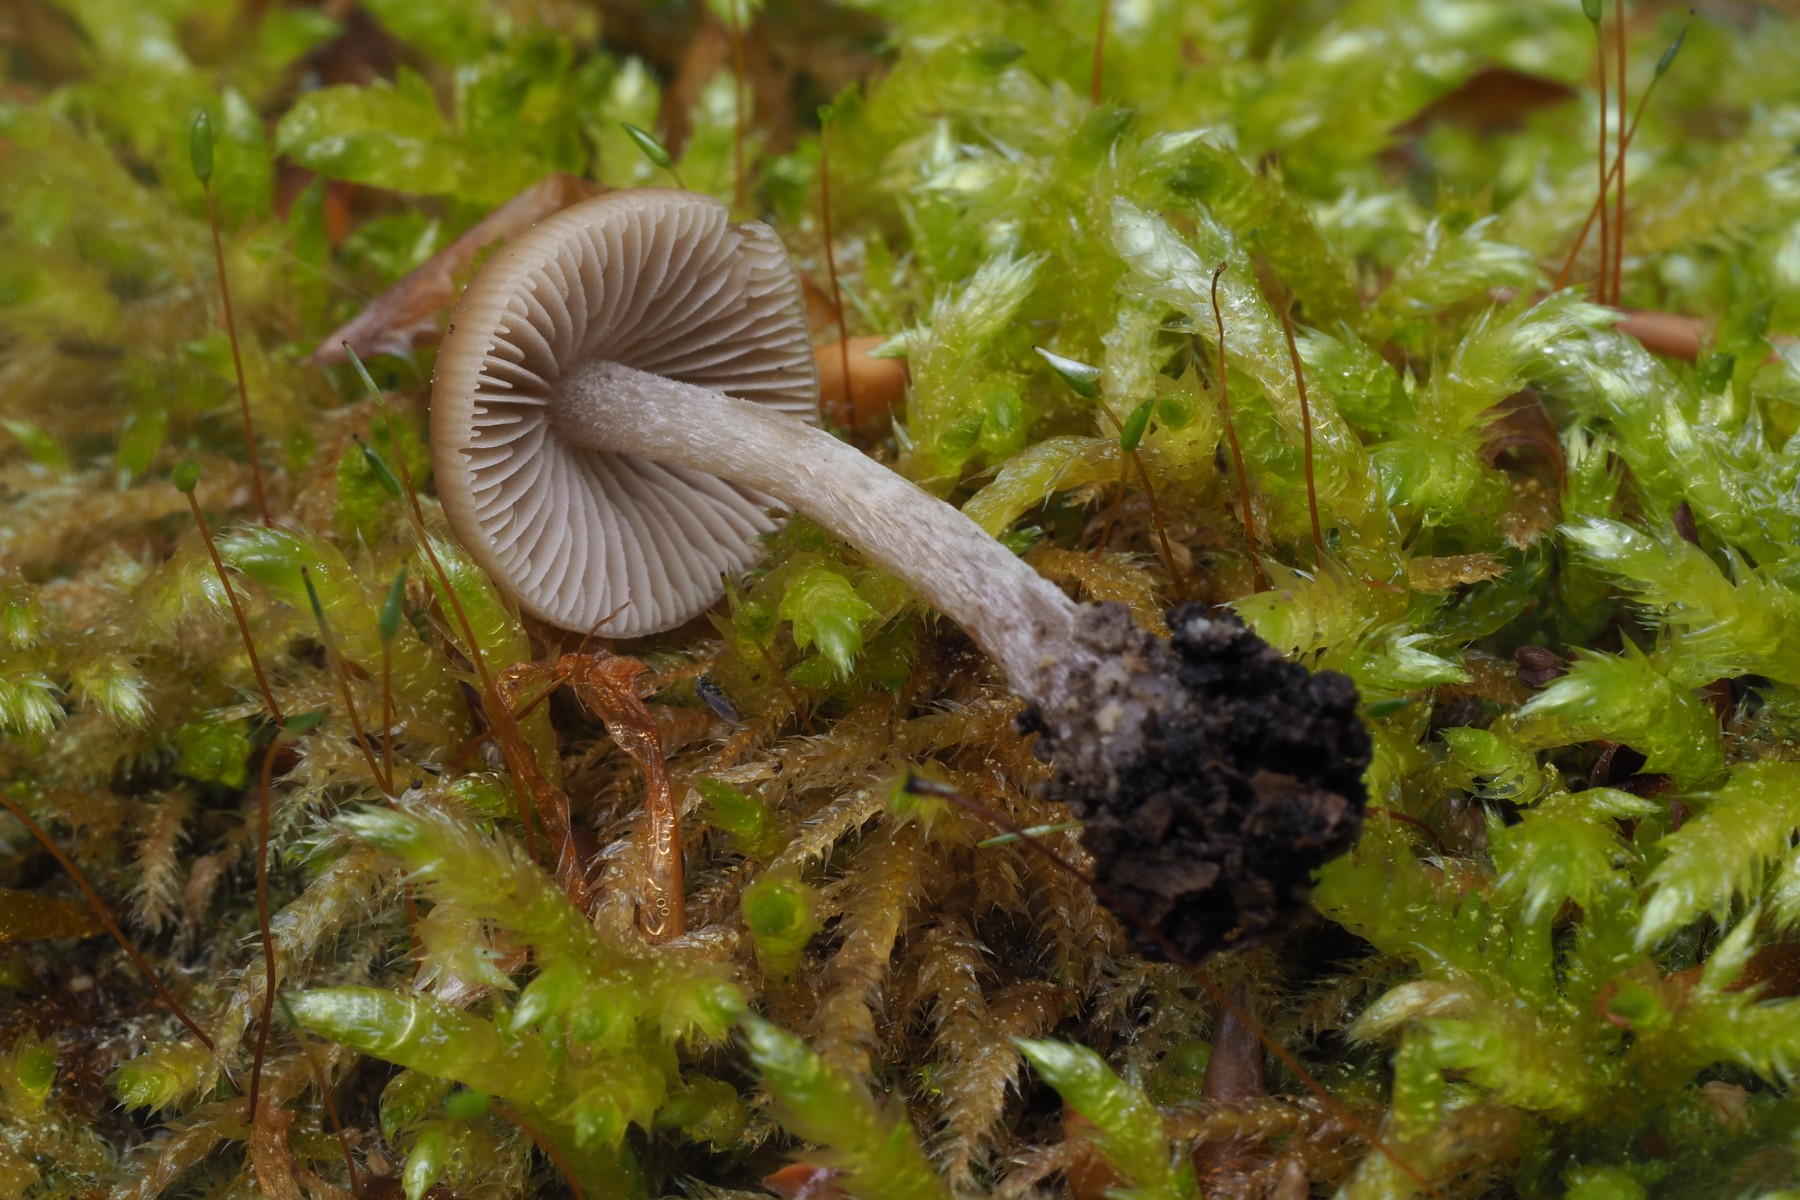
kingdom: Fungi
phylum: Basidiomycota
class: Agaricomycetes
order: Agaricales
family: Psathyrellaceae
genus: Psathyrella
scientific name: Psathyrella
